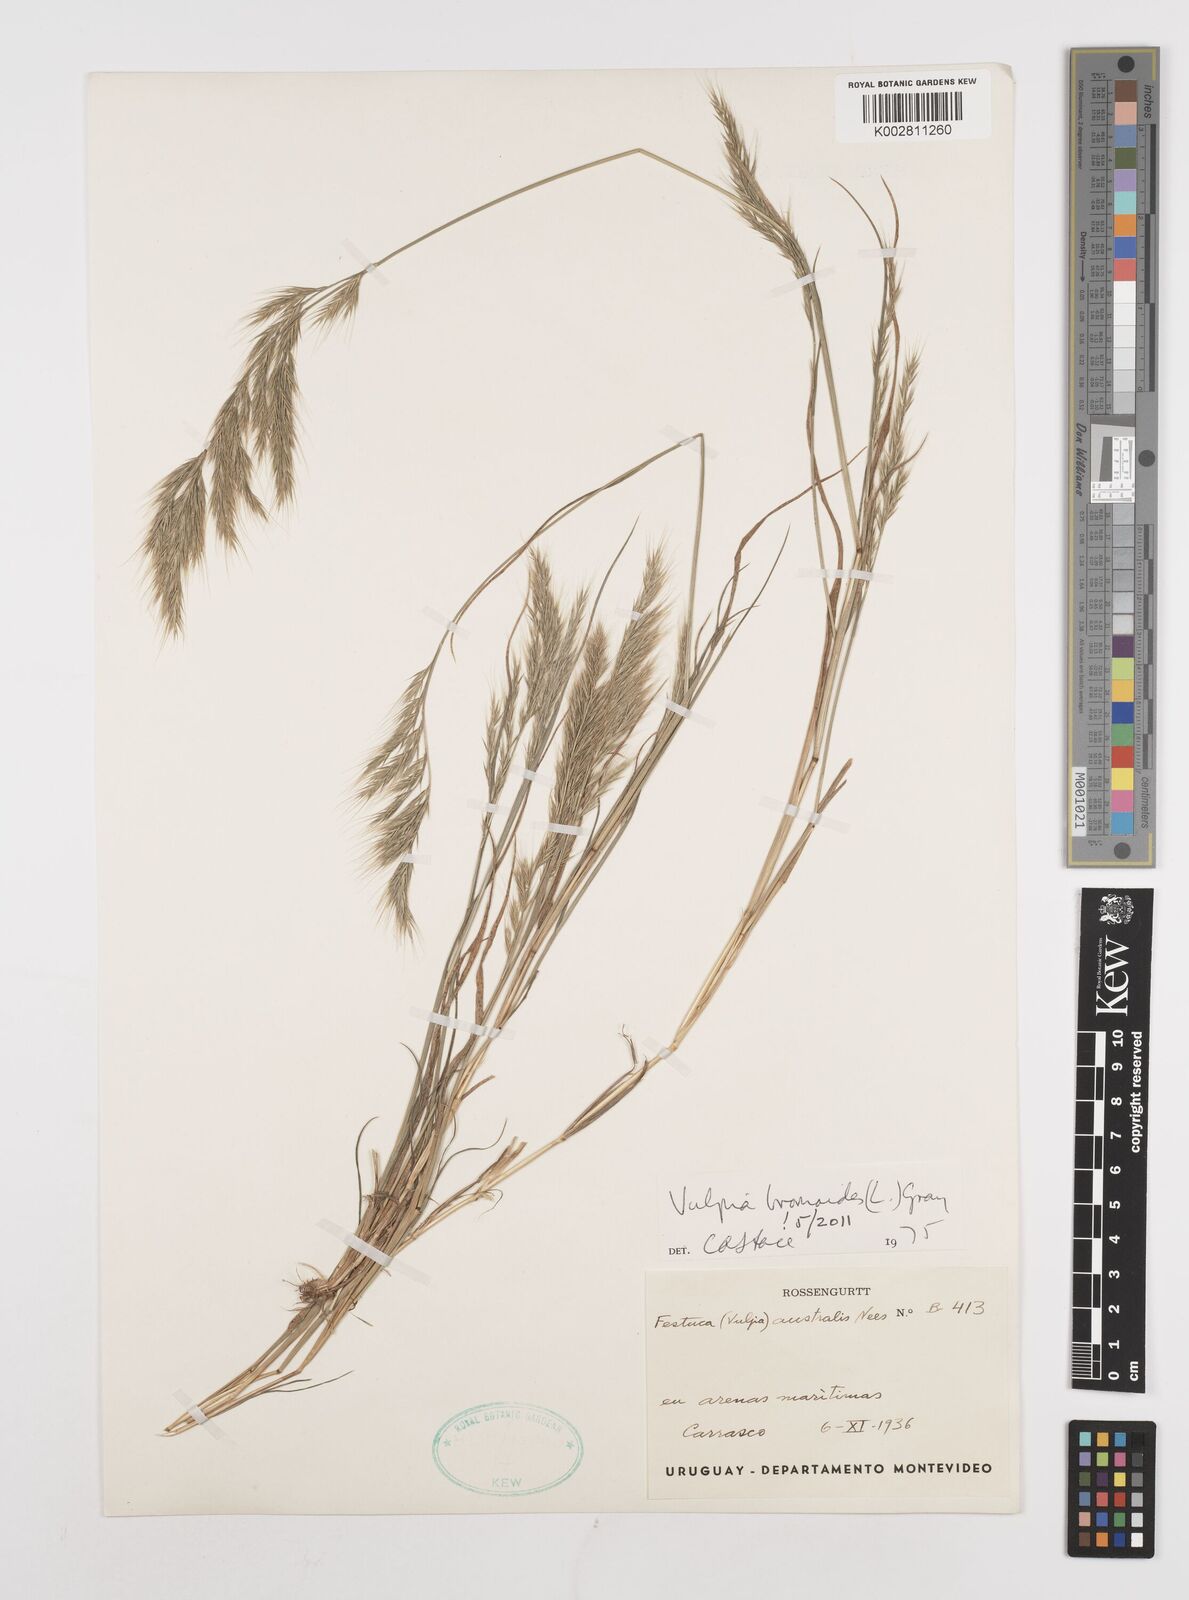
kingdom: Plantae
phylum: Tracheophyta
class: Liliopsida
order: Poales
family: Poaceae
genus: Festuca
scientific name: Festuca bromoides
